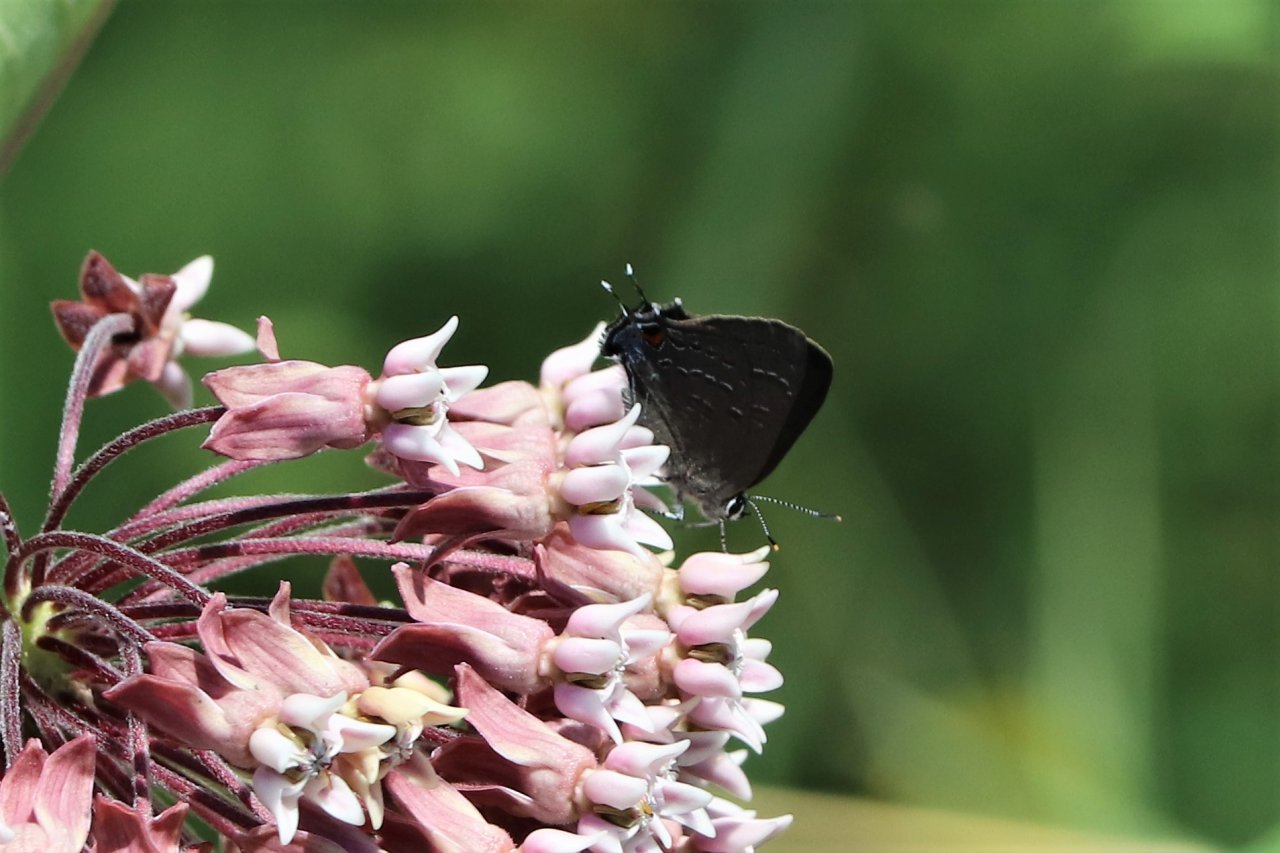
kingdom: Animalia
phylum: Arthropoda
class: Insecta
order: Lepidoptera
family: Lycaenidae
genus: Satyrium
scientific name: Satyrium calanus
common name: Banded Hairstreak
